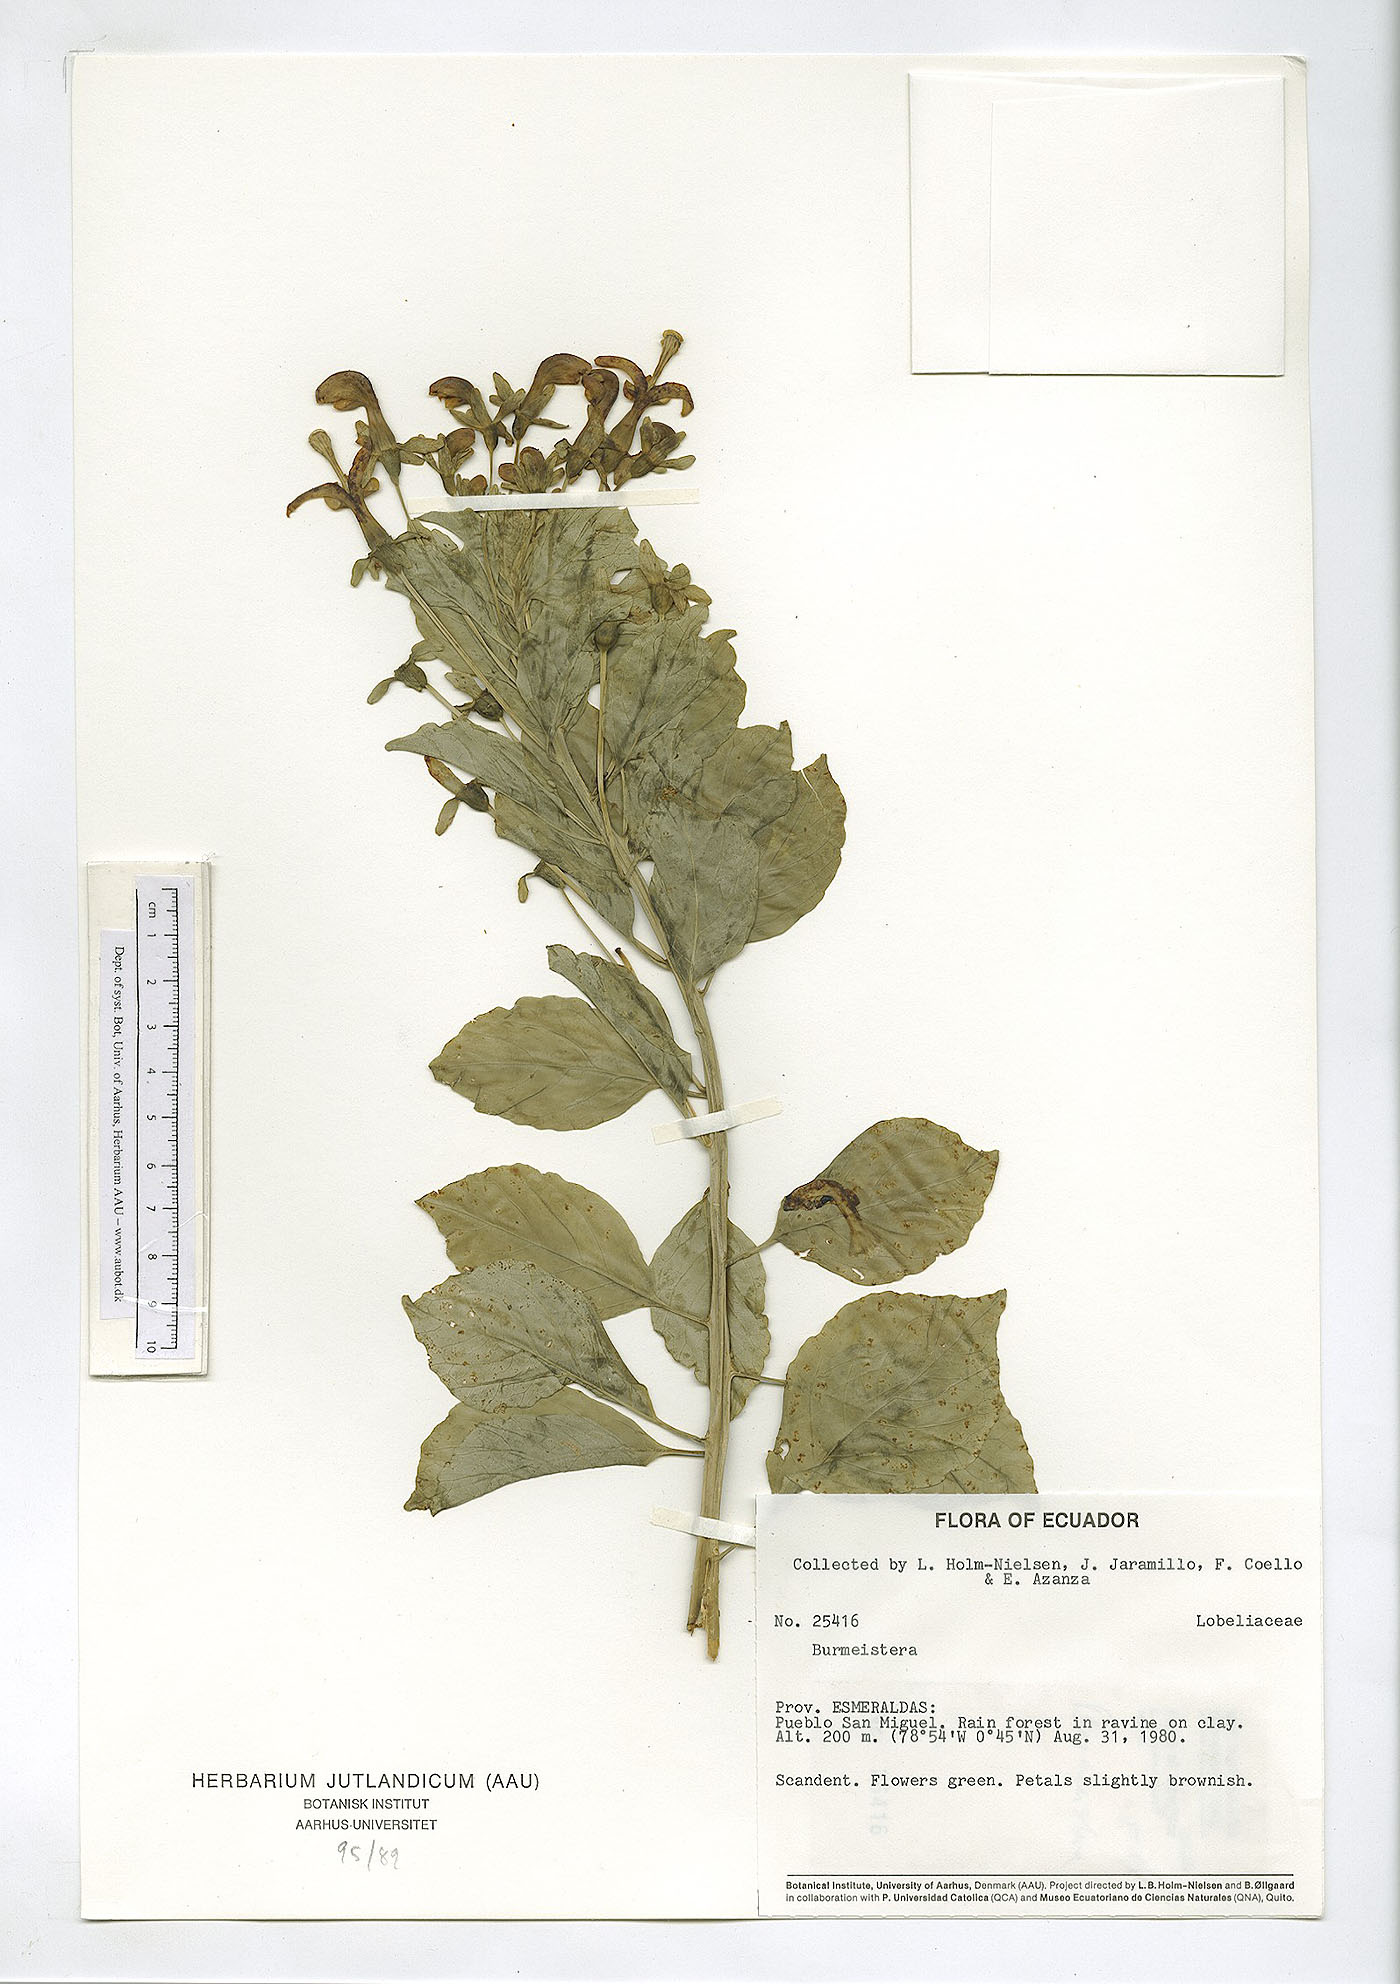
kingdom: Plantae
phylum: Tracheophyta
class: Magnoliopsida
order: Asterales
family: Campanulaceae
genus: Burmeistera
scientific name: Burmeistera
